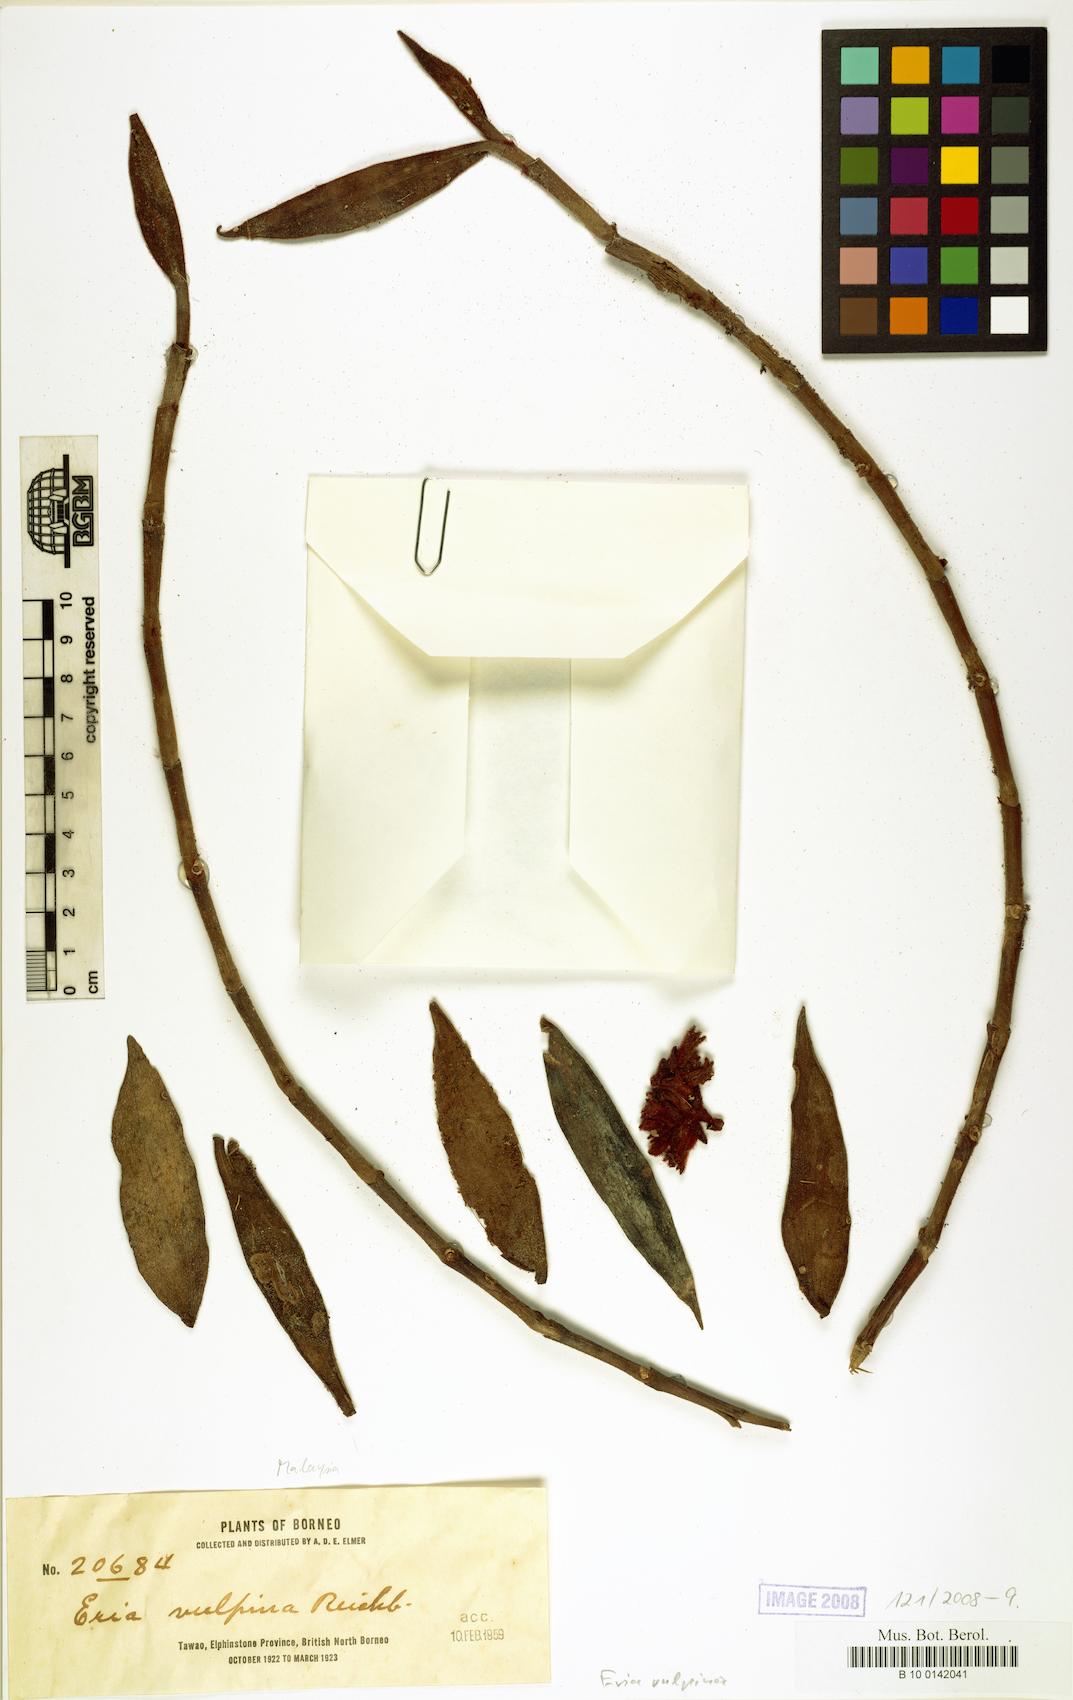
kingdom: Plantae
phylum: Tracheophyta
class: Liliopsida
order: Asparagales
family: Orchidaceae
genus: Trichotosia
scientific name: Trichotosia vulpina
